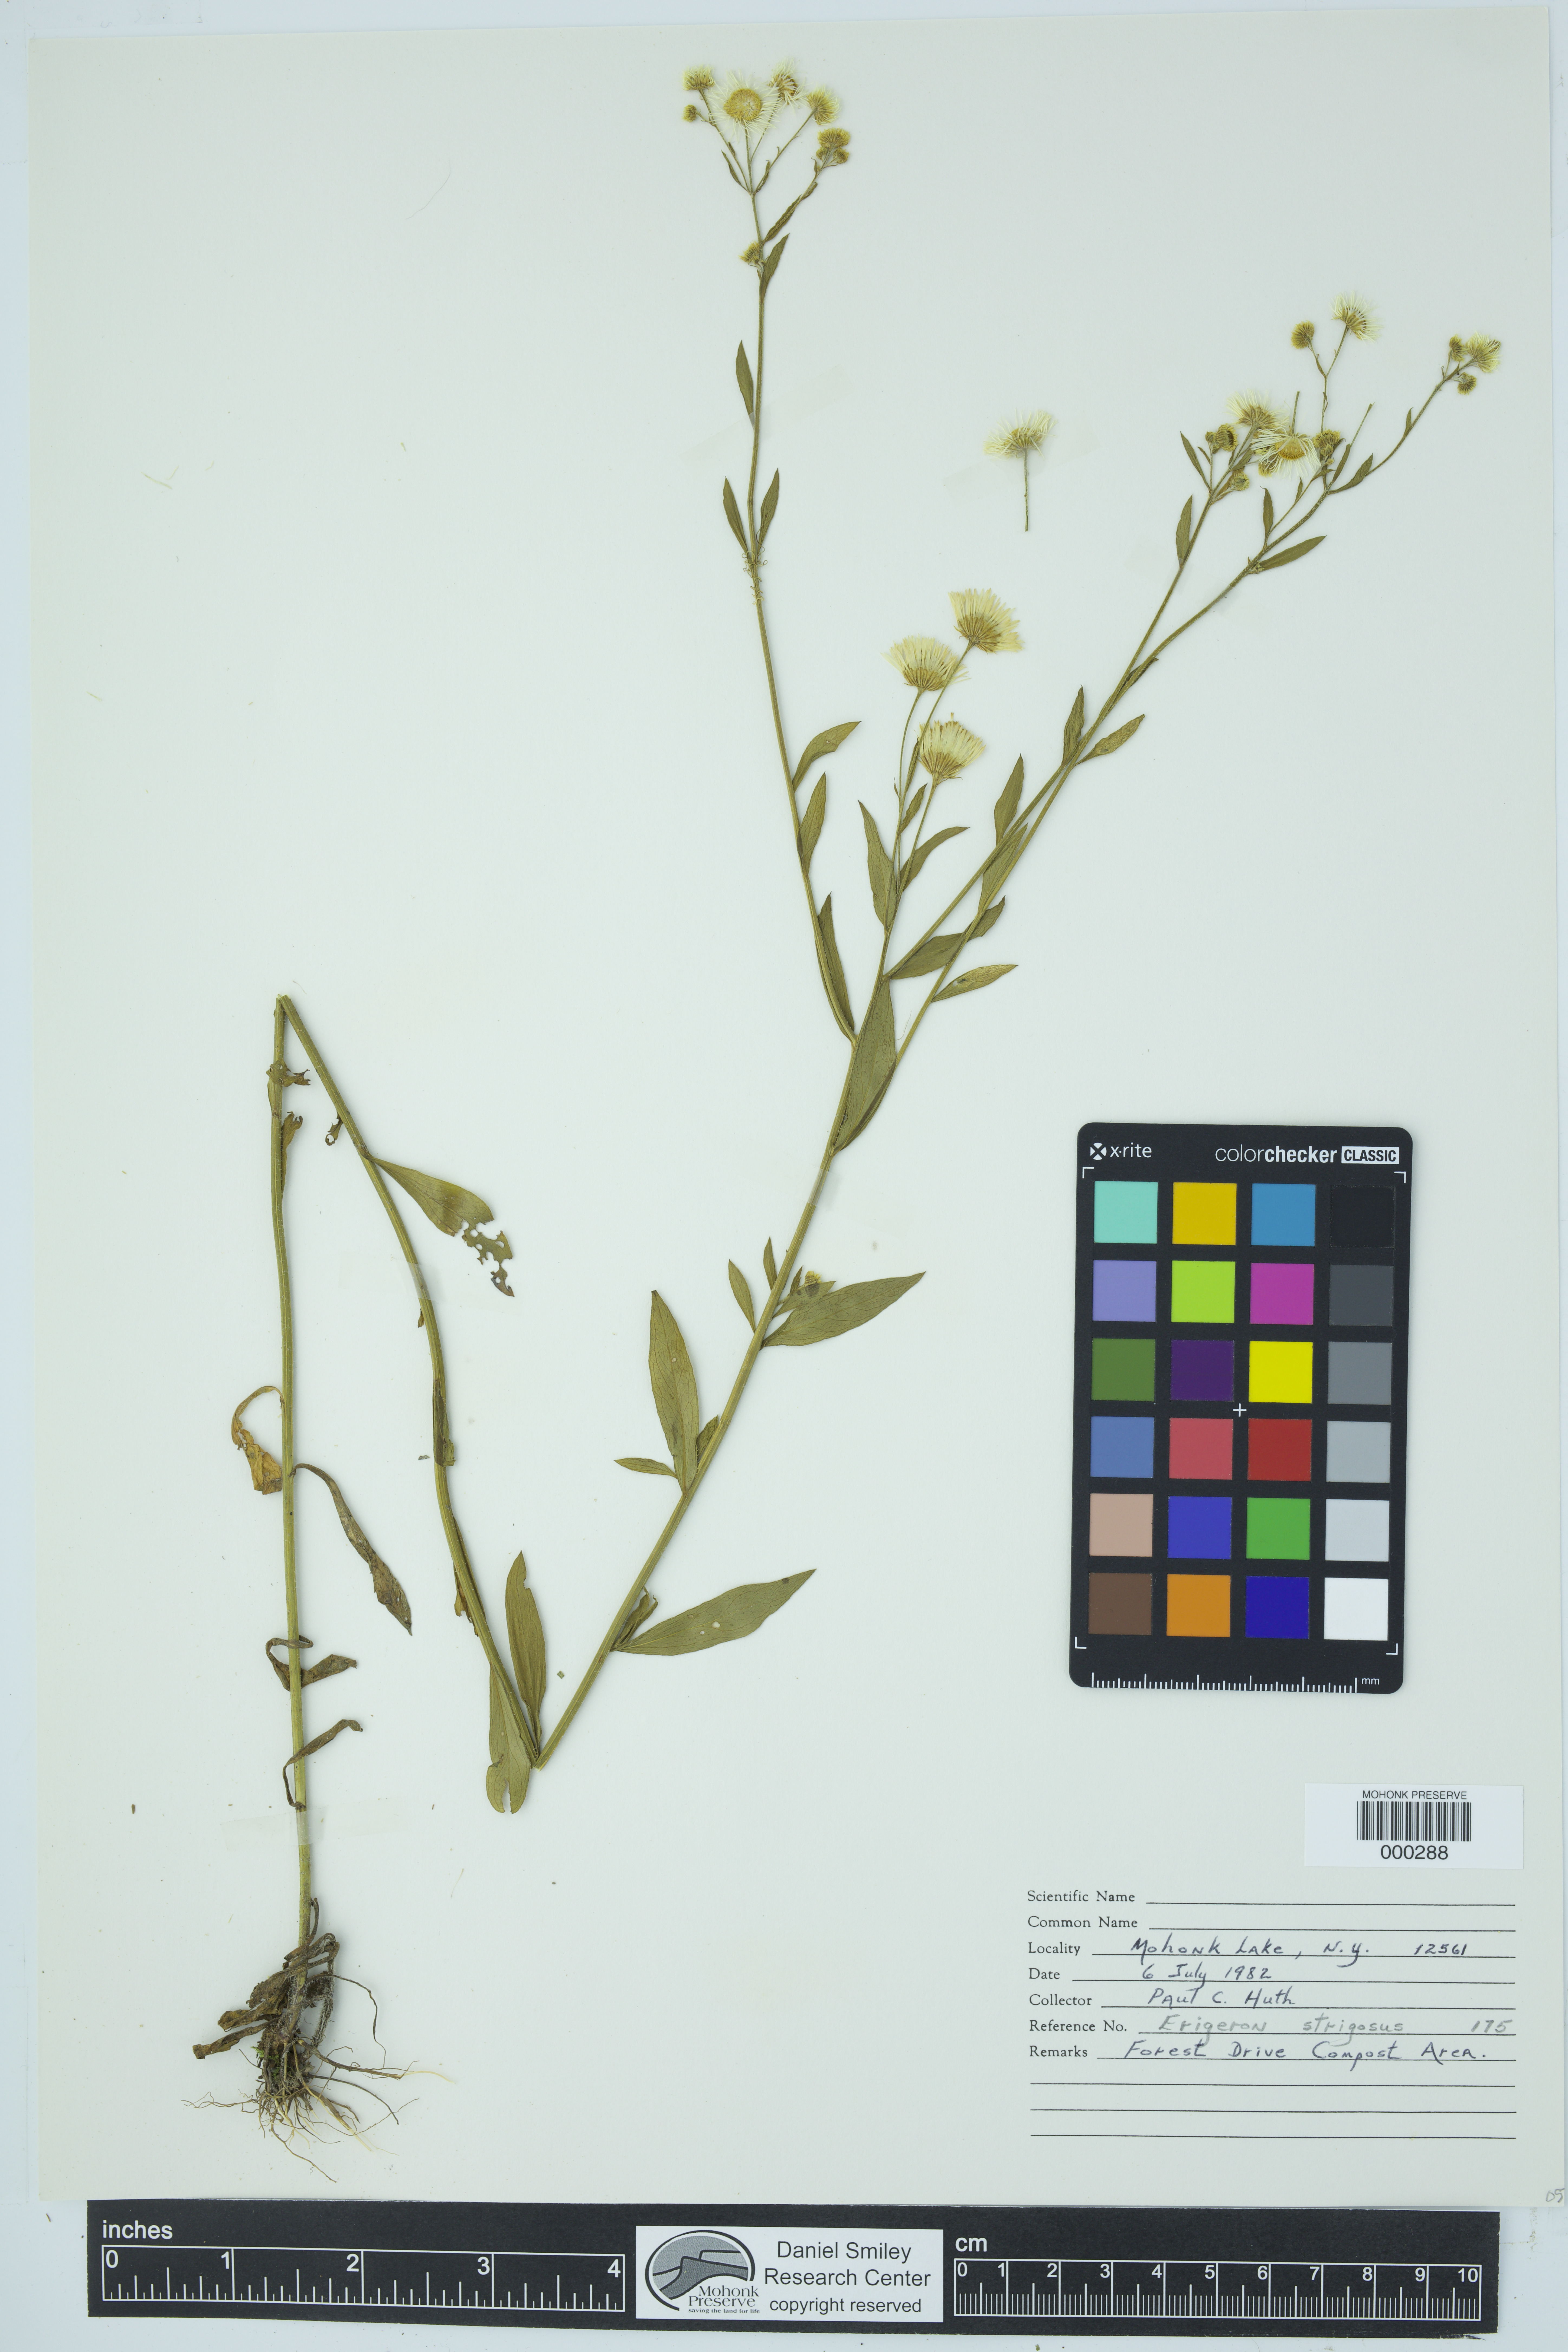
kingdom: Plantae
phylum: Tracheophyta
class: Magnoliopsida
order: Asterales
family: Asteraceae
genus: Erigeron
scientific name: Erigeron strigosus
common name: Common eastern fleabane
